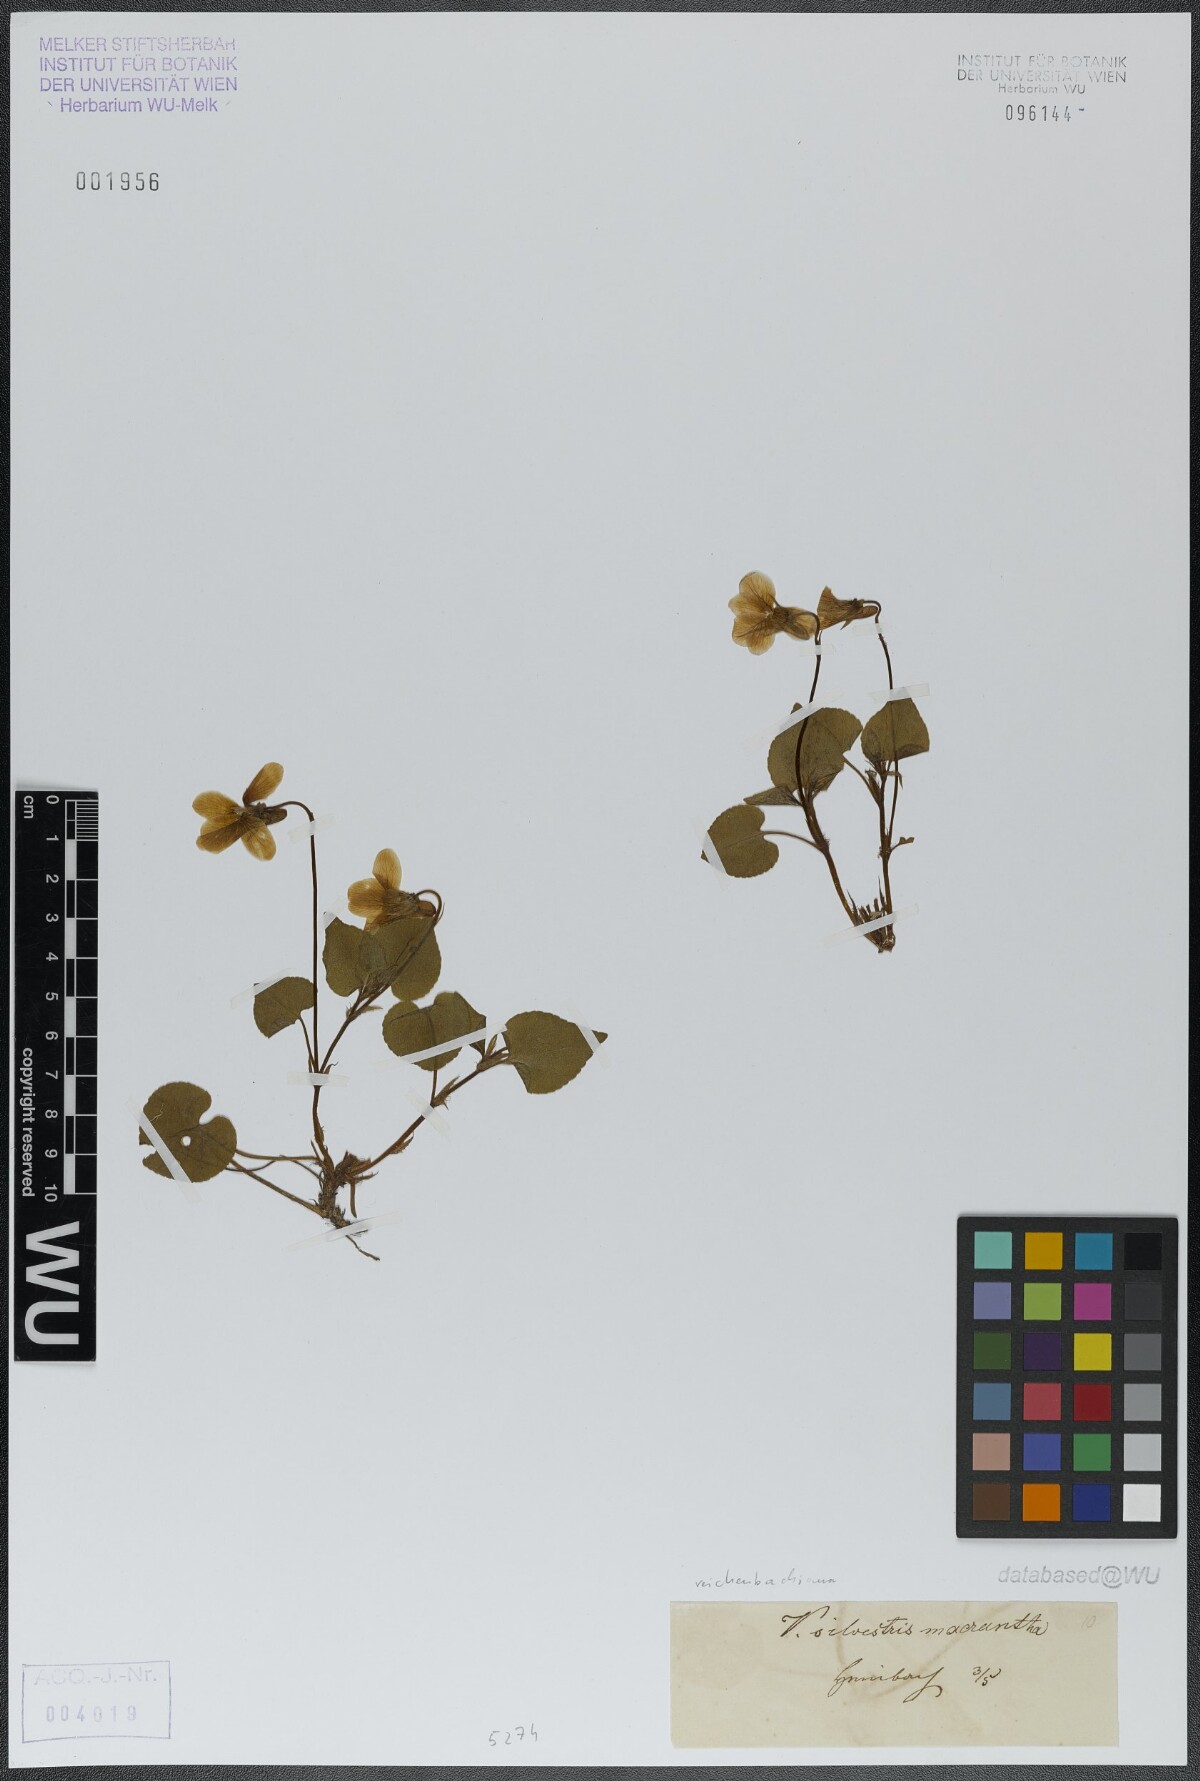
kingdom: Plantae
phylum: Tracheophyta
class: Magnoliopsida
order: Malpighiales
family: Violaceae
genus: Viola
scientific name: Viola reichenbachiana
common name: Early dog-violet
